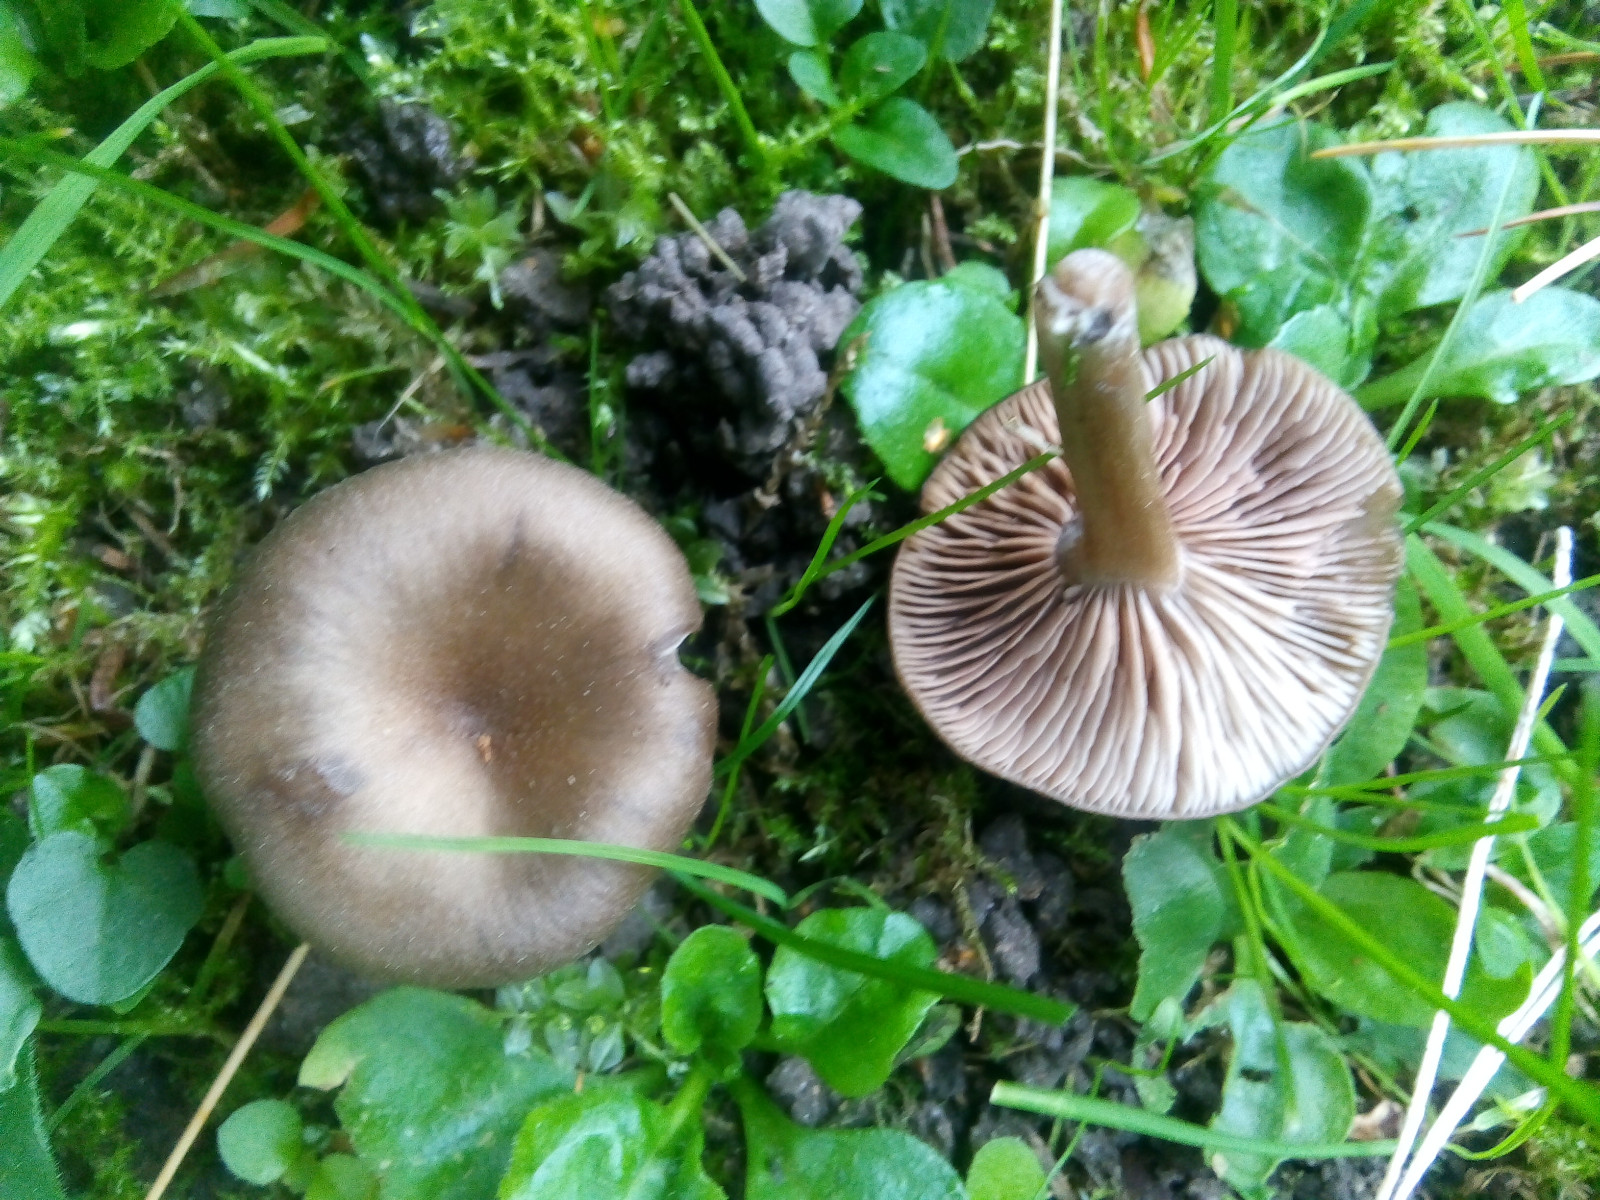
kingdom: Fungi
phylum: Basidiomycota
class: Agaricomycetes
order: Agaricales
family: Entolomataceae
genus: Entoloma
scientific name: Entoloma
